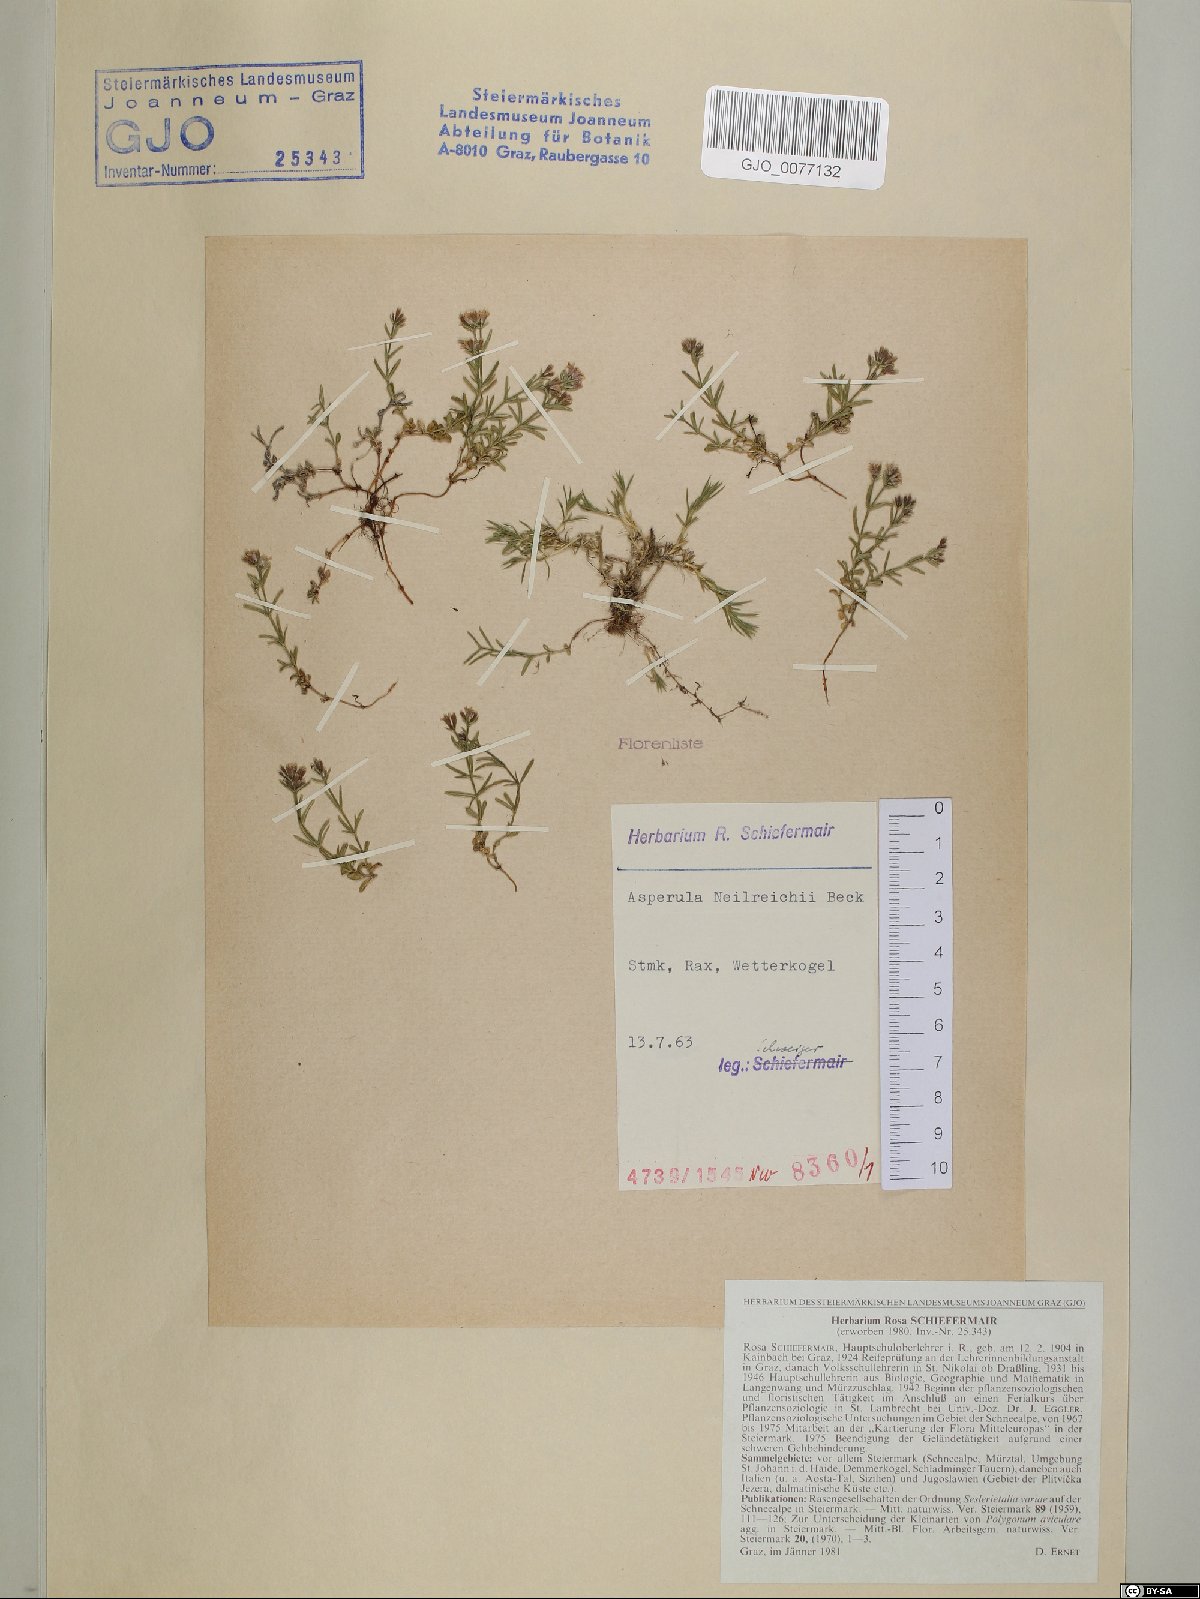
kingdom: Plantae
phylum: Tracheophyta
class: Magnoliopsida
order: Gentianales
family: Rubiaceae
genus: Cynanchica
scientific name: Cynanchica neilreichii
